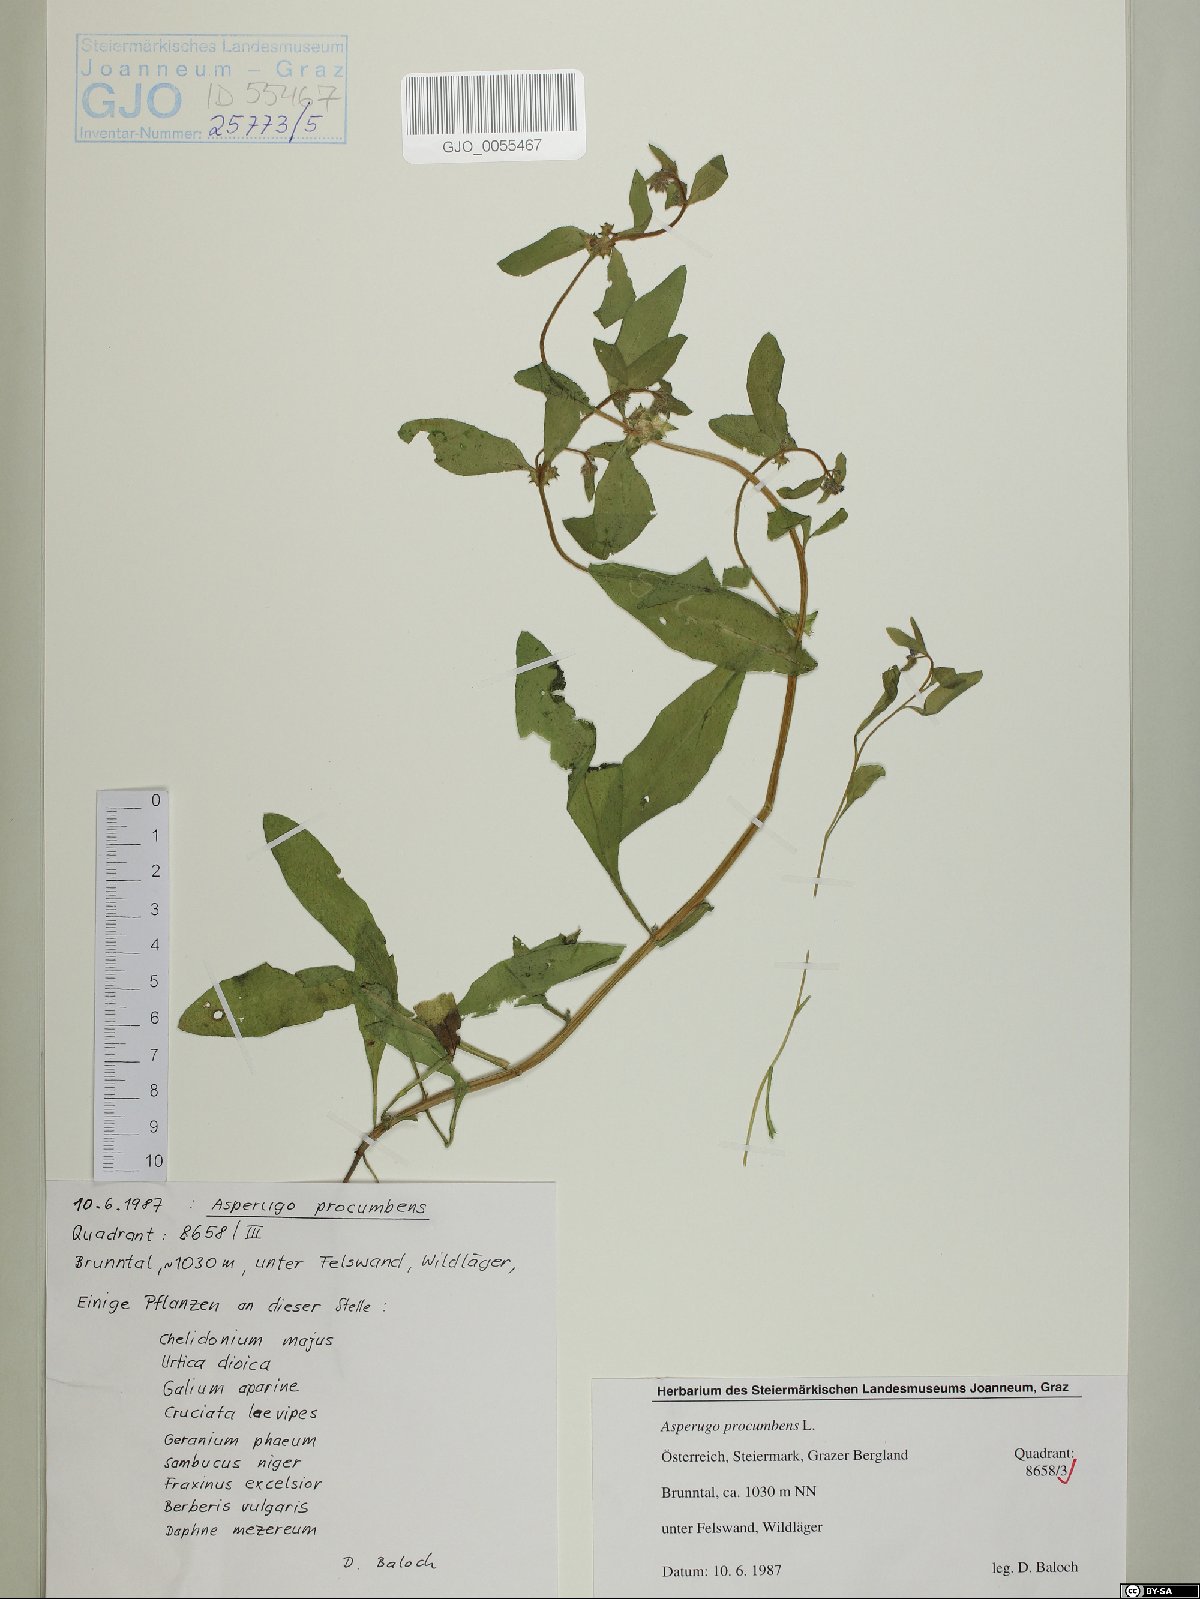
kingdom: Plantae
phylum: Tracheophyta
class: Magnoliopsida
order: Boraginales
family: Boraginaceae
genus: Asperugo
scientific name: Asperugo procumbens
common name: Madwort
